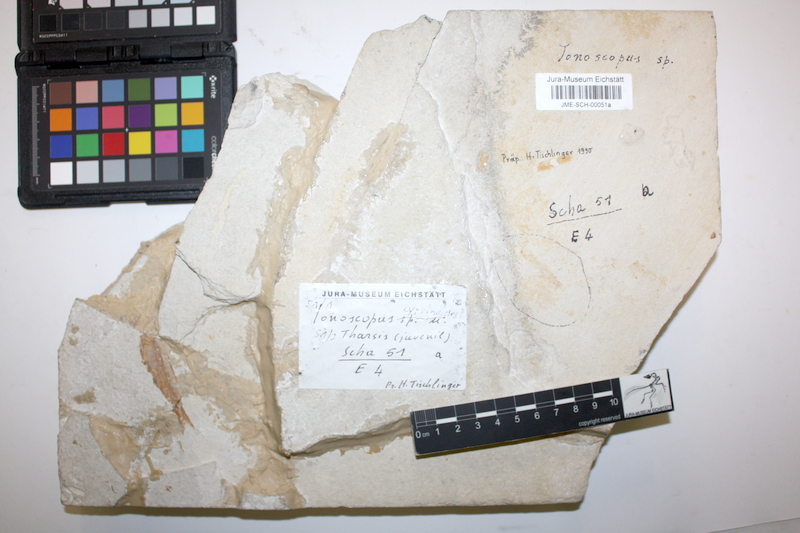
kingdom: Animalia
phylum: Chordata
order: Amiiformes
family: Ionoscopidae
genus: Ionoscopus
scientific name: Ionoscopus
